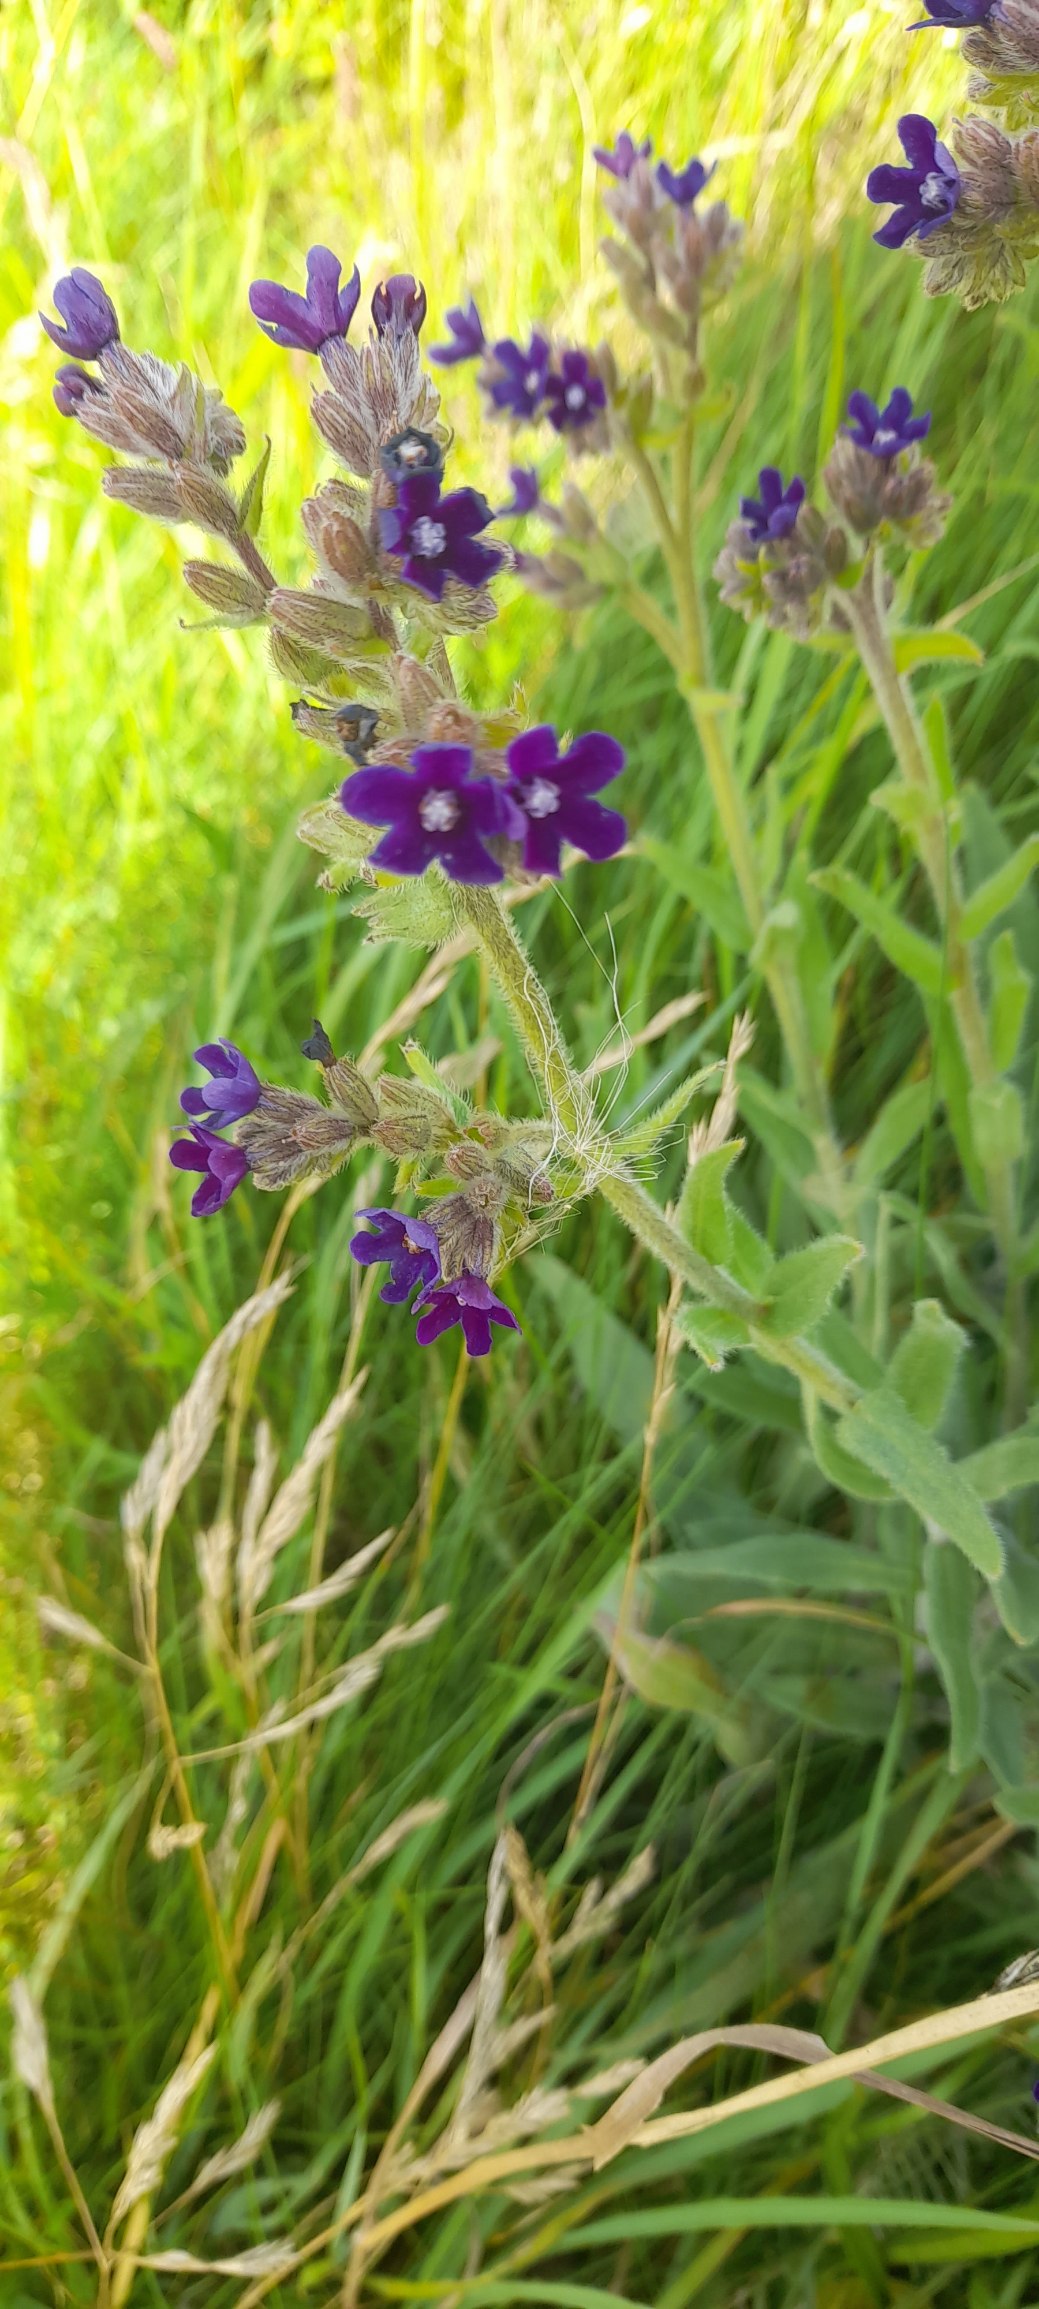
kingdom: Plantae
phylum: Tracheophyta
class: Magnoliopsida
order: Boraginales
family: Boraginaceae
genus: Anchusa
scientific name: Anchusa officinalis
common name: Læge-oksetunge
